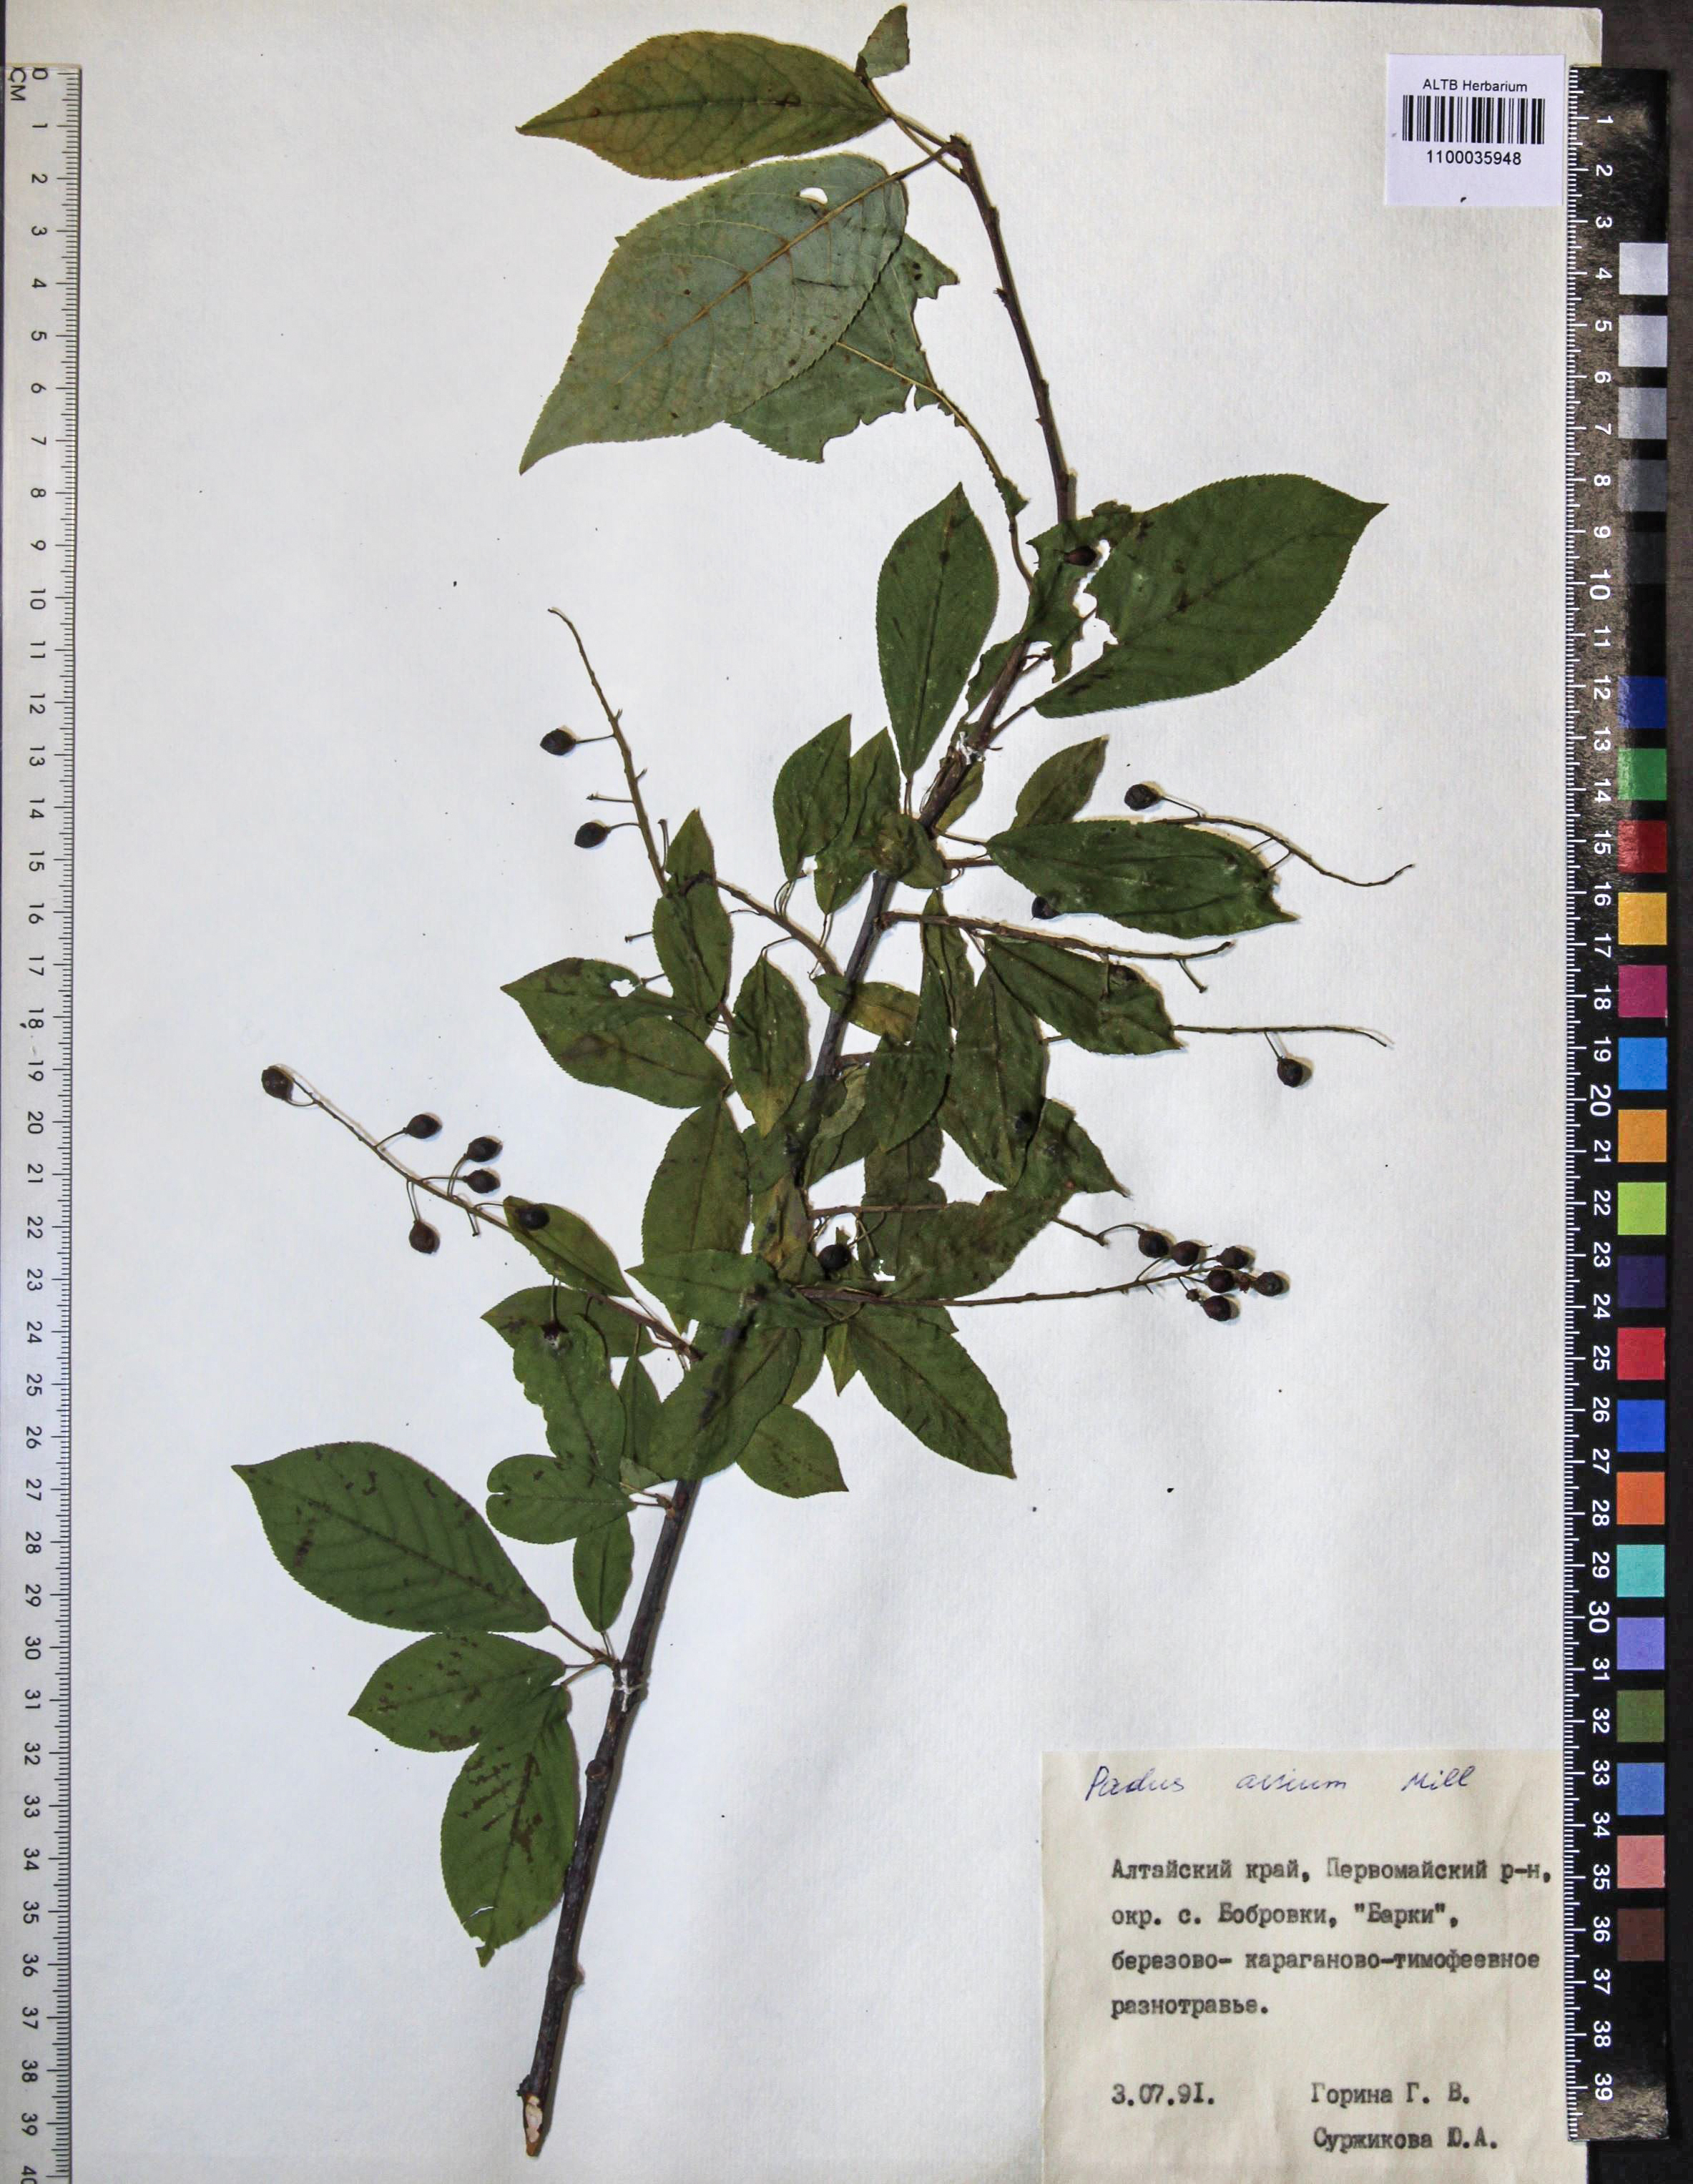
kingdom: Plantae
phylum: Tracheophyta
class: Magnoliopsida
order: Rosales
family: Rosaceae
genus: Prunus
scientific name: Prunus padus
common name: Bird cherry
